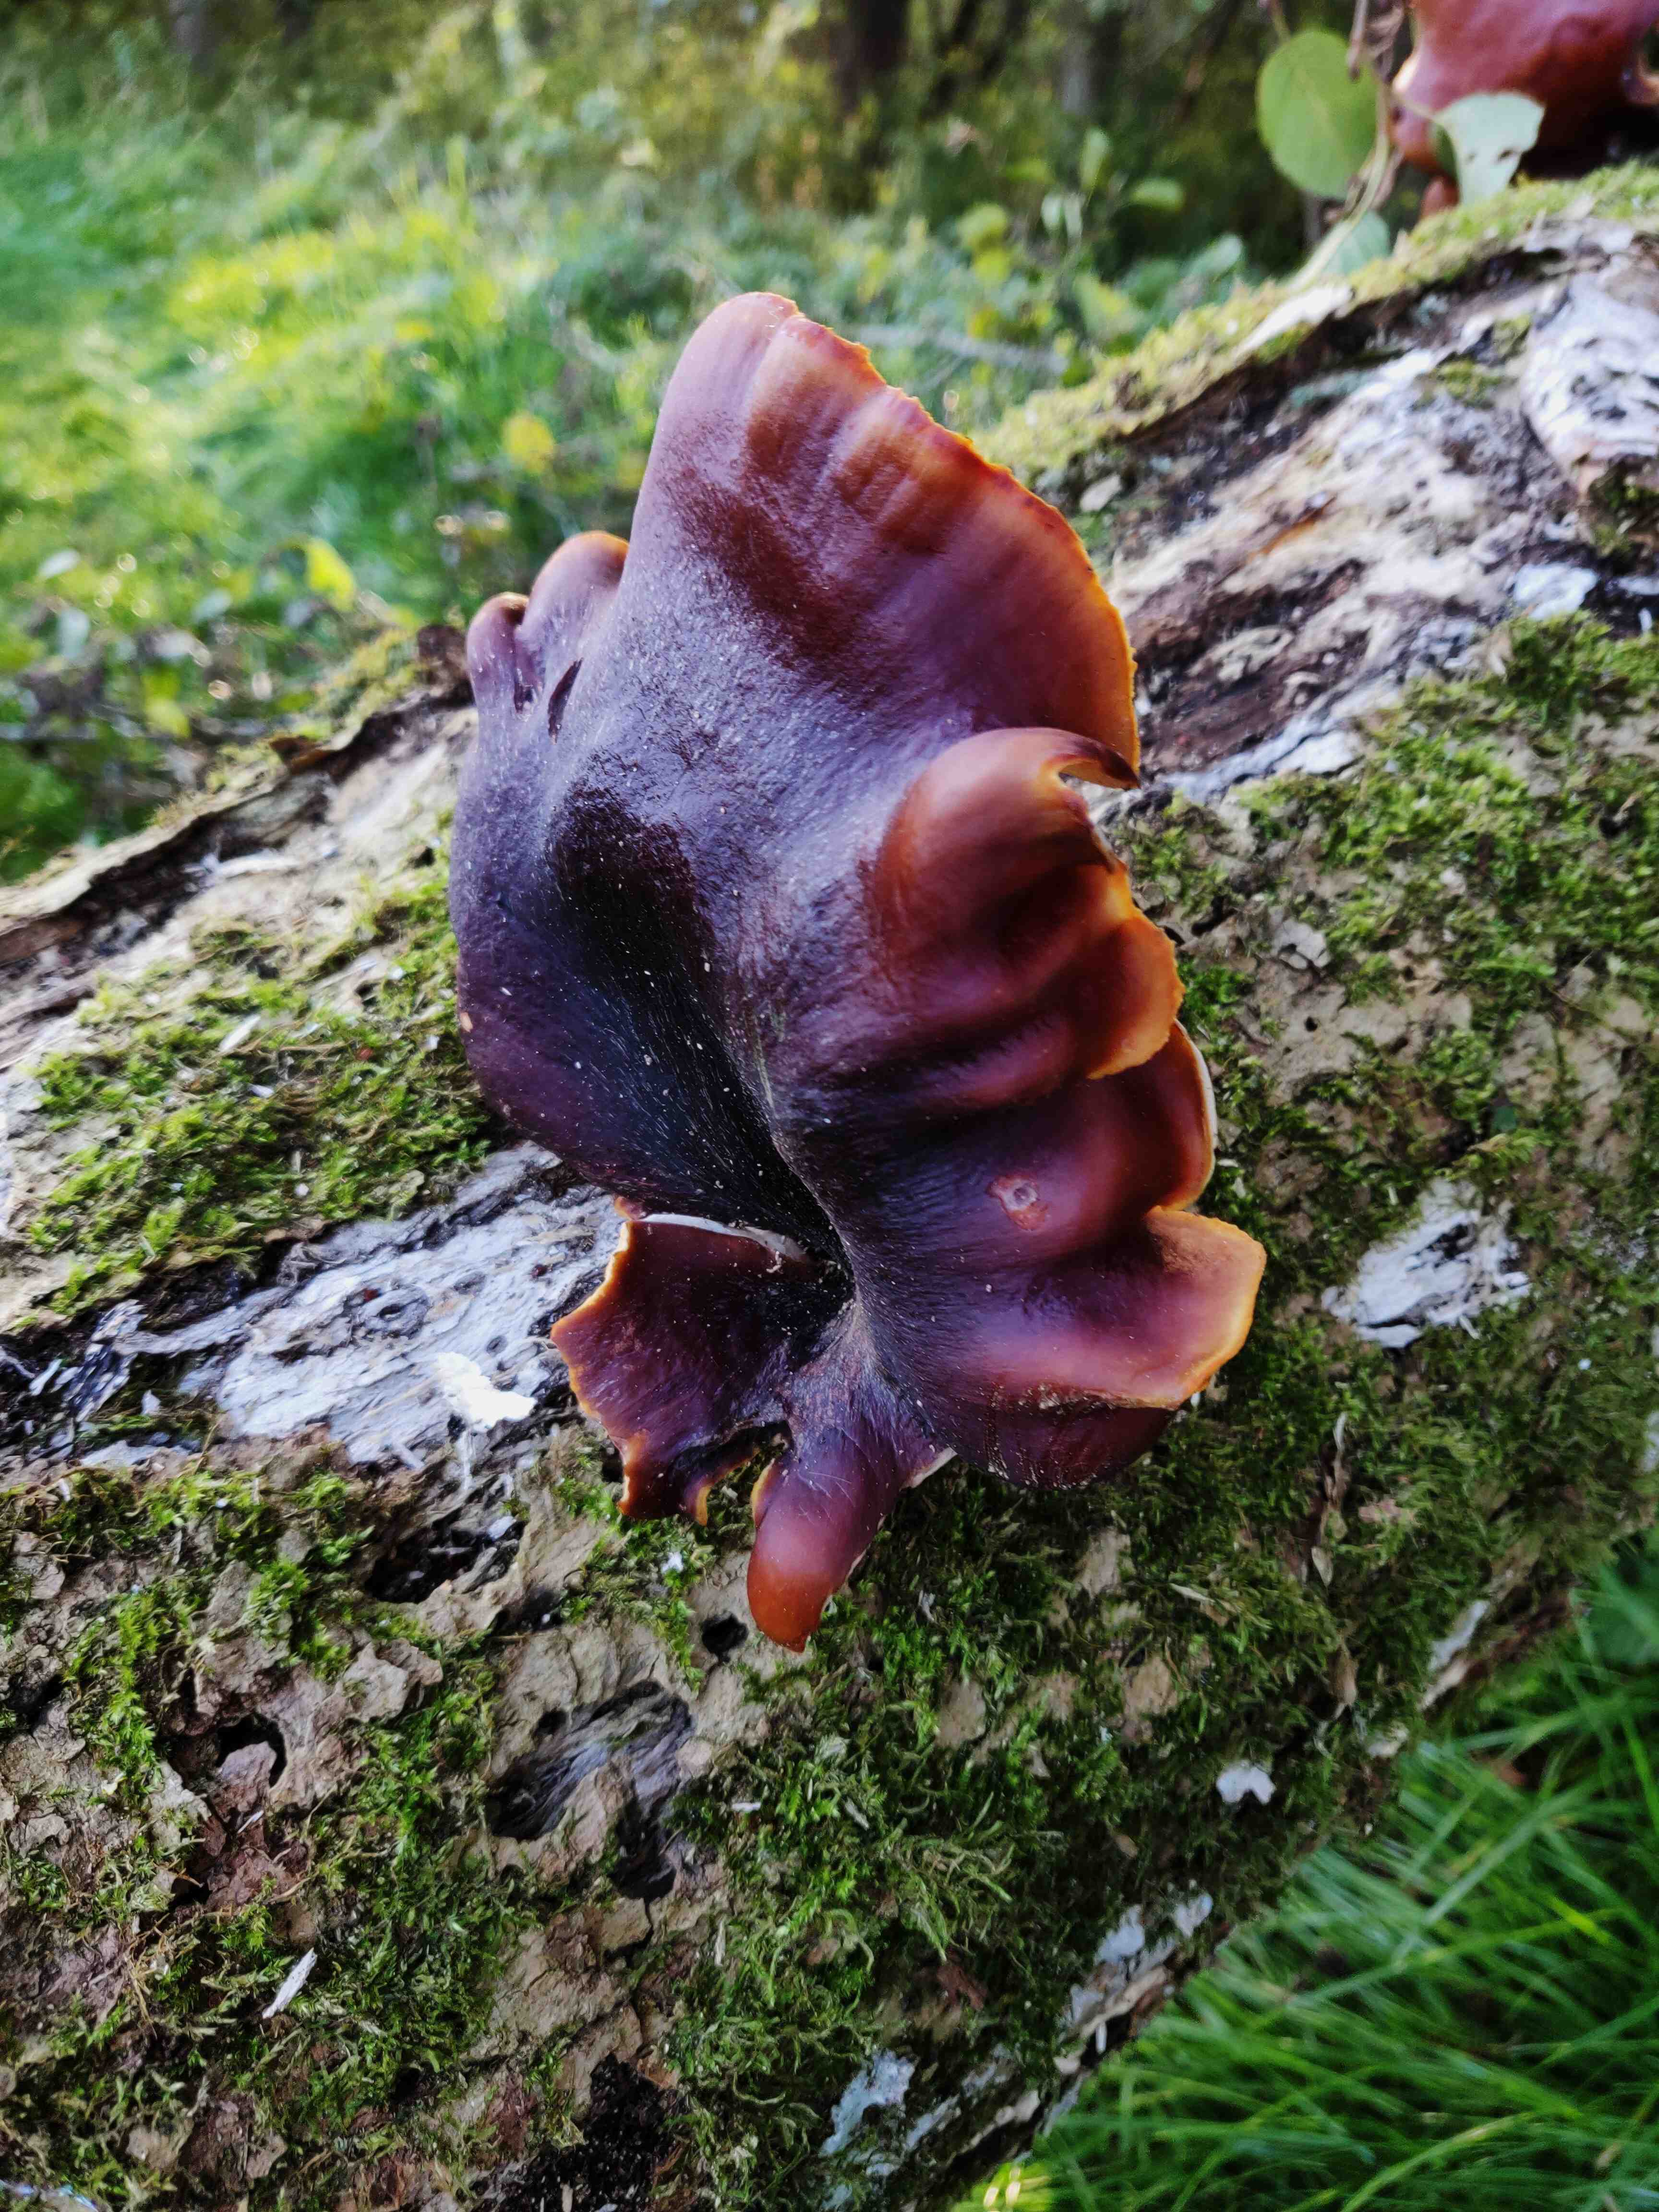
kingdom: Fungi
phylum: Basidiomycota
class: Agaricomycetes
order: Polyporales
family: Polyporaceae
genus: Picipes
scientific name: Picipes badius
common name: kastaniebrun stilkporesvamp
